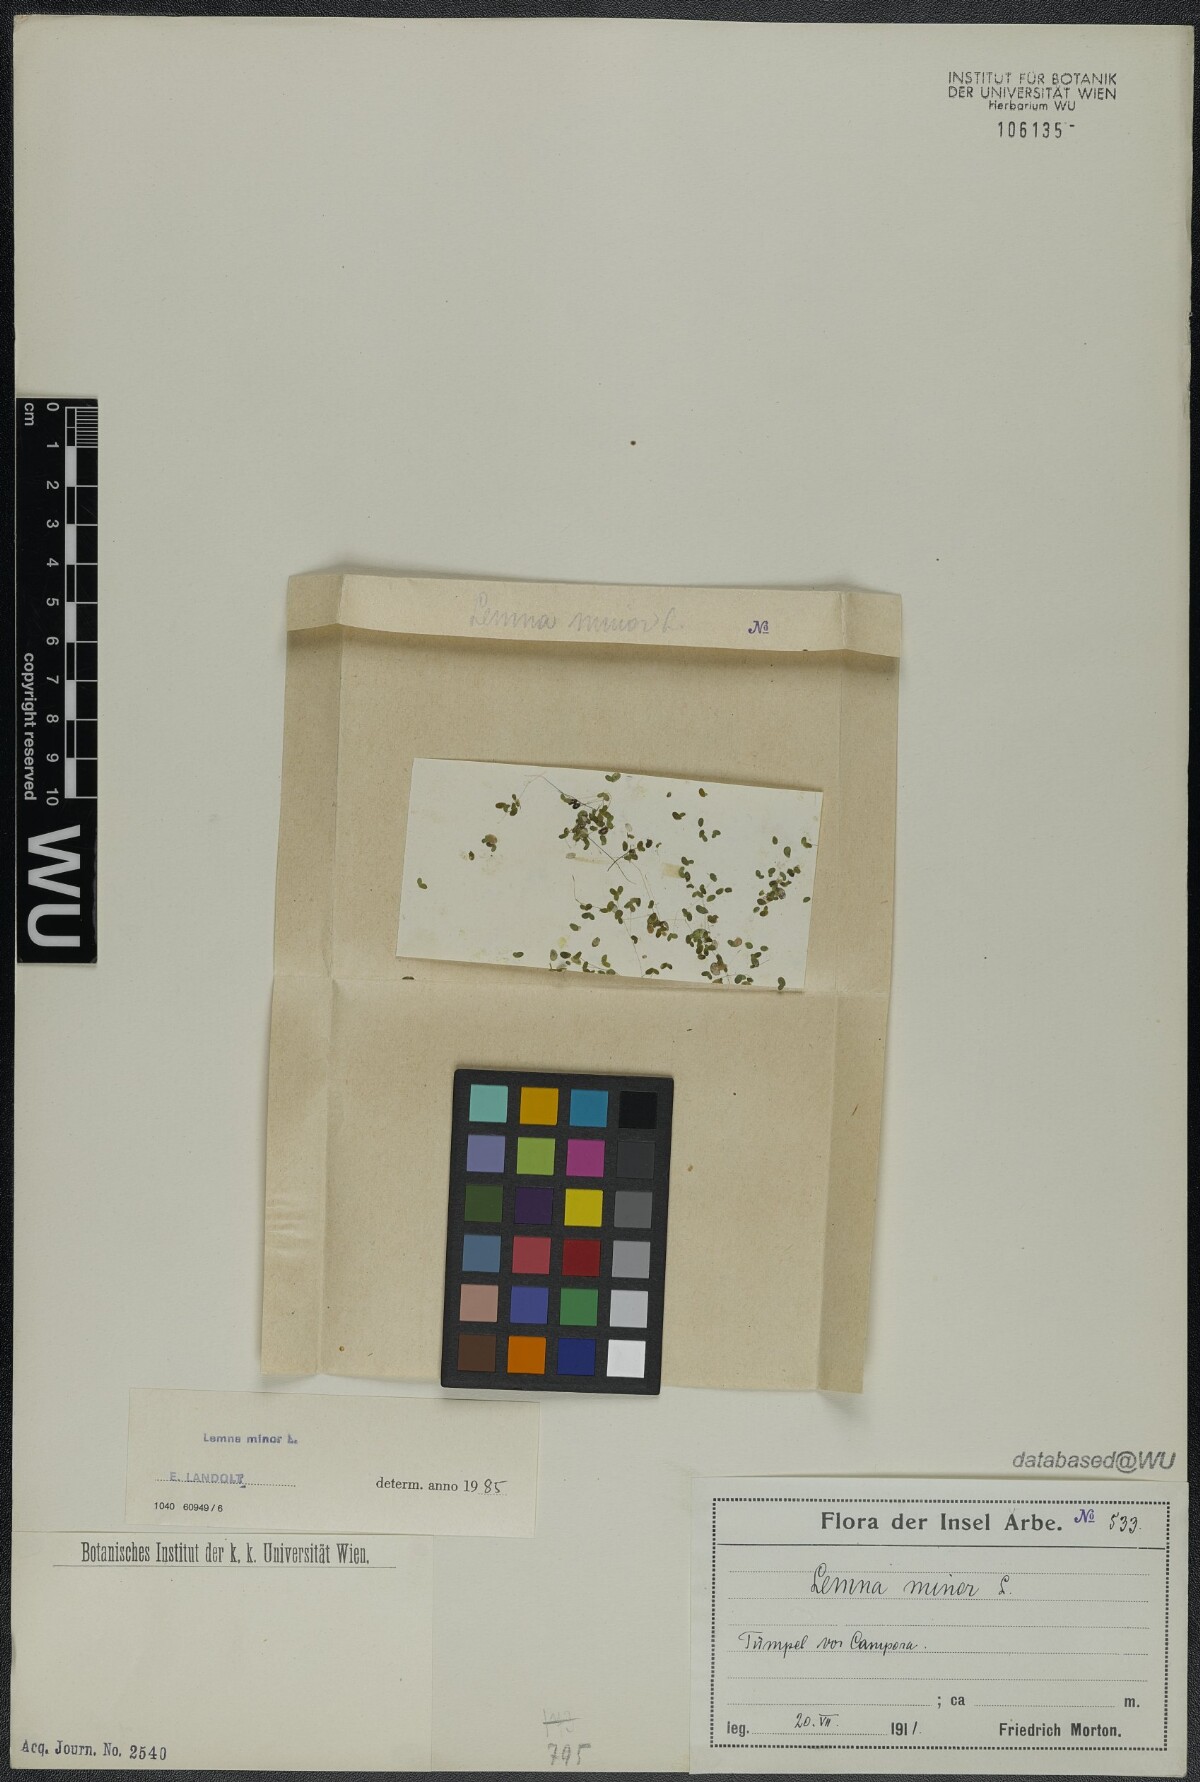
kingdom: Plantae
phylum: Tracheophyta
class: Liliopsida
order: Alismatales
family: Araceae
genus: Lemna
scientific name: Lemna minor
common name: Common duckweed
